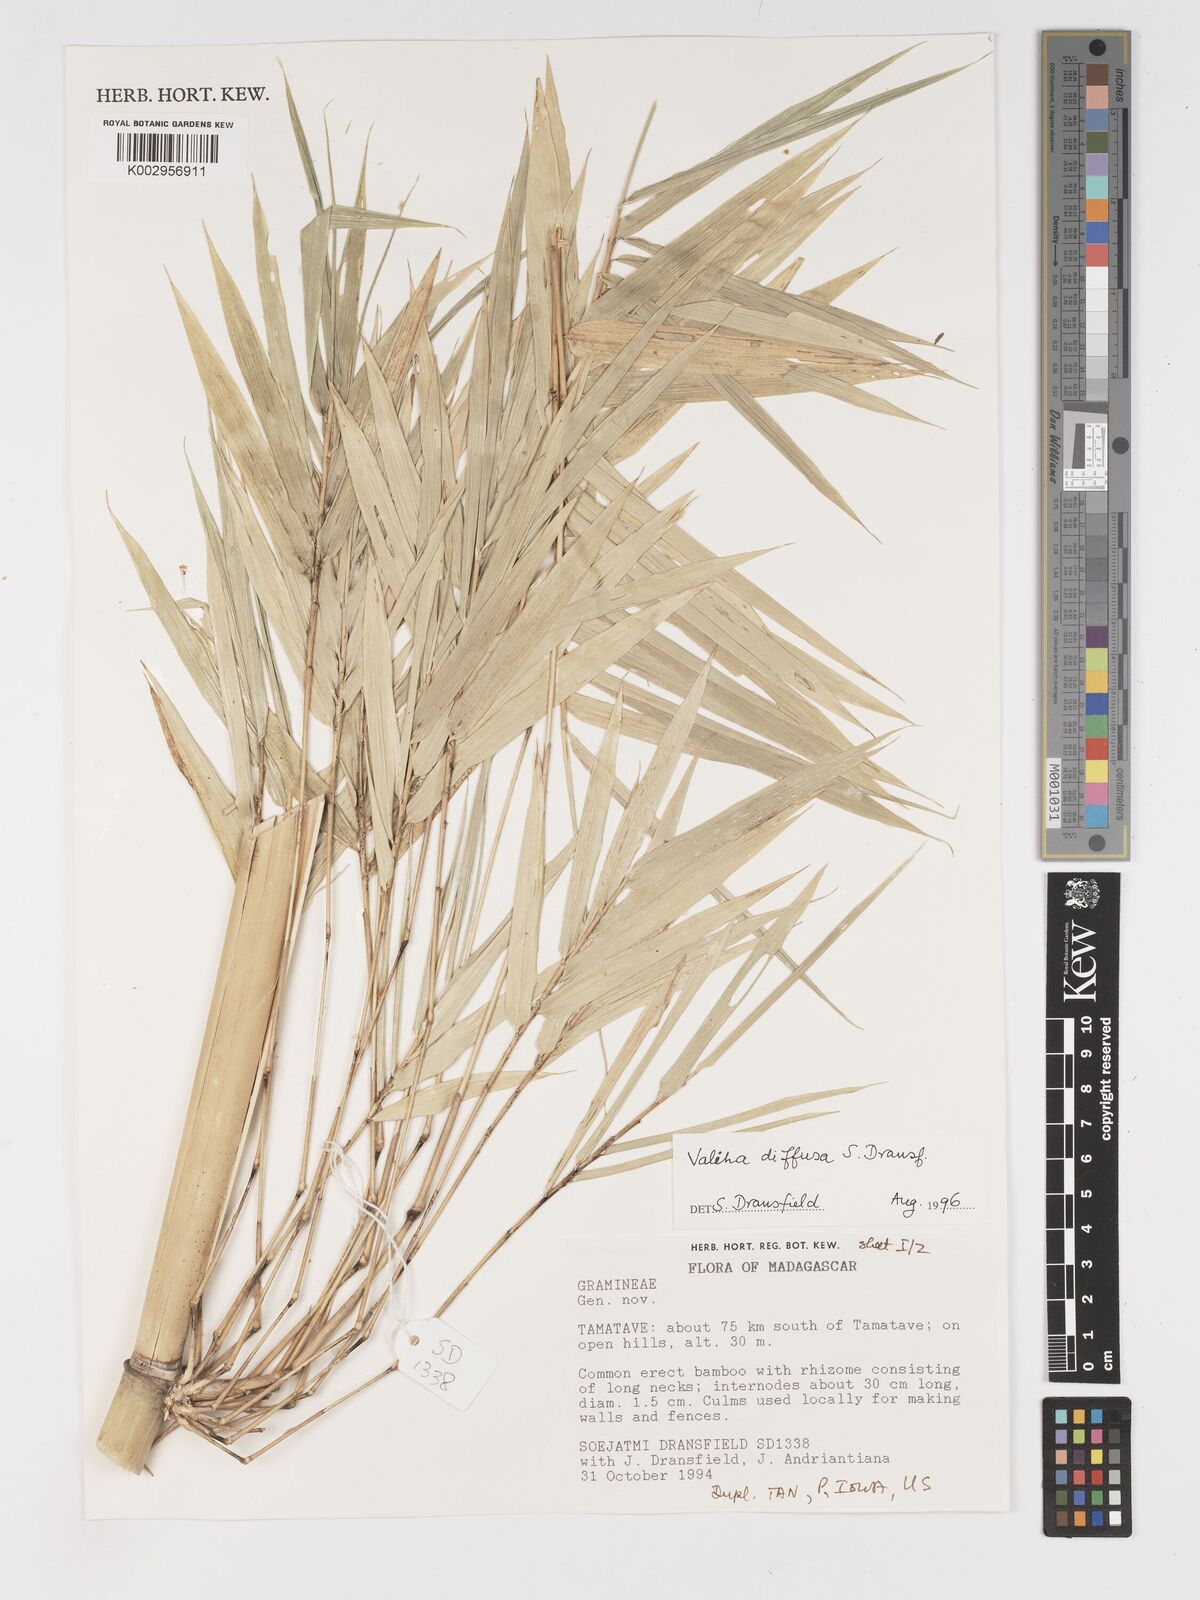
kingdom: Plantae
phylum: Tracheophyta
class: Liliopsida
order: Poales
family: Poaceae
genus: Valiha
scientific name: Valiha
